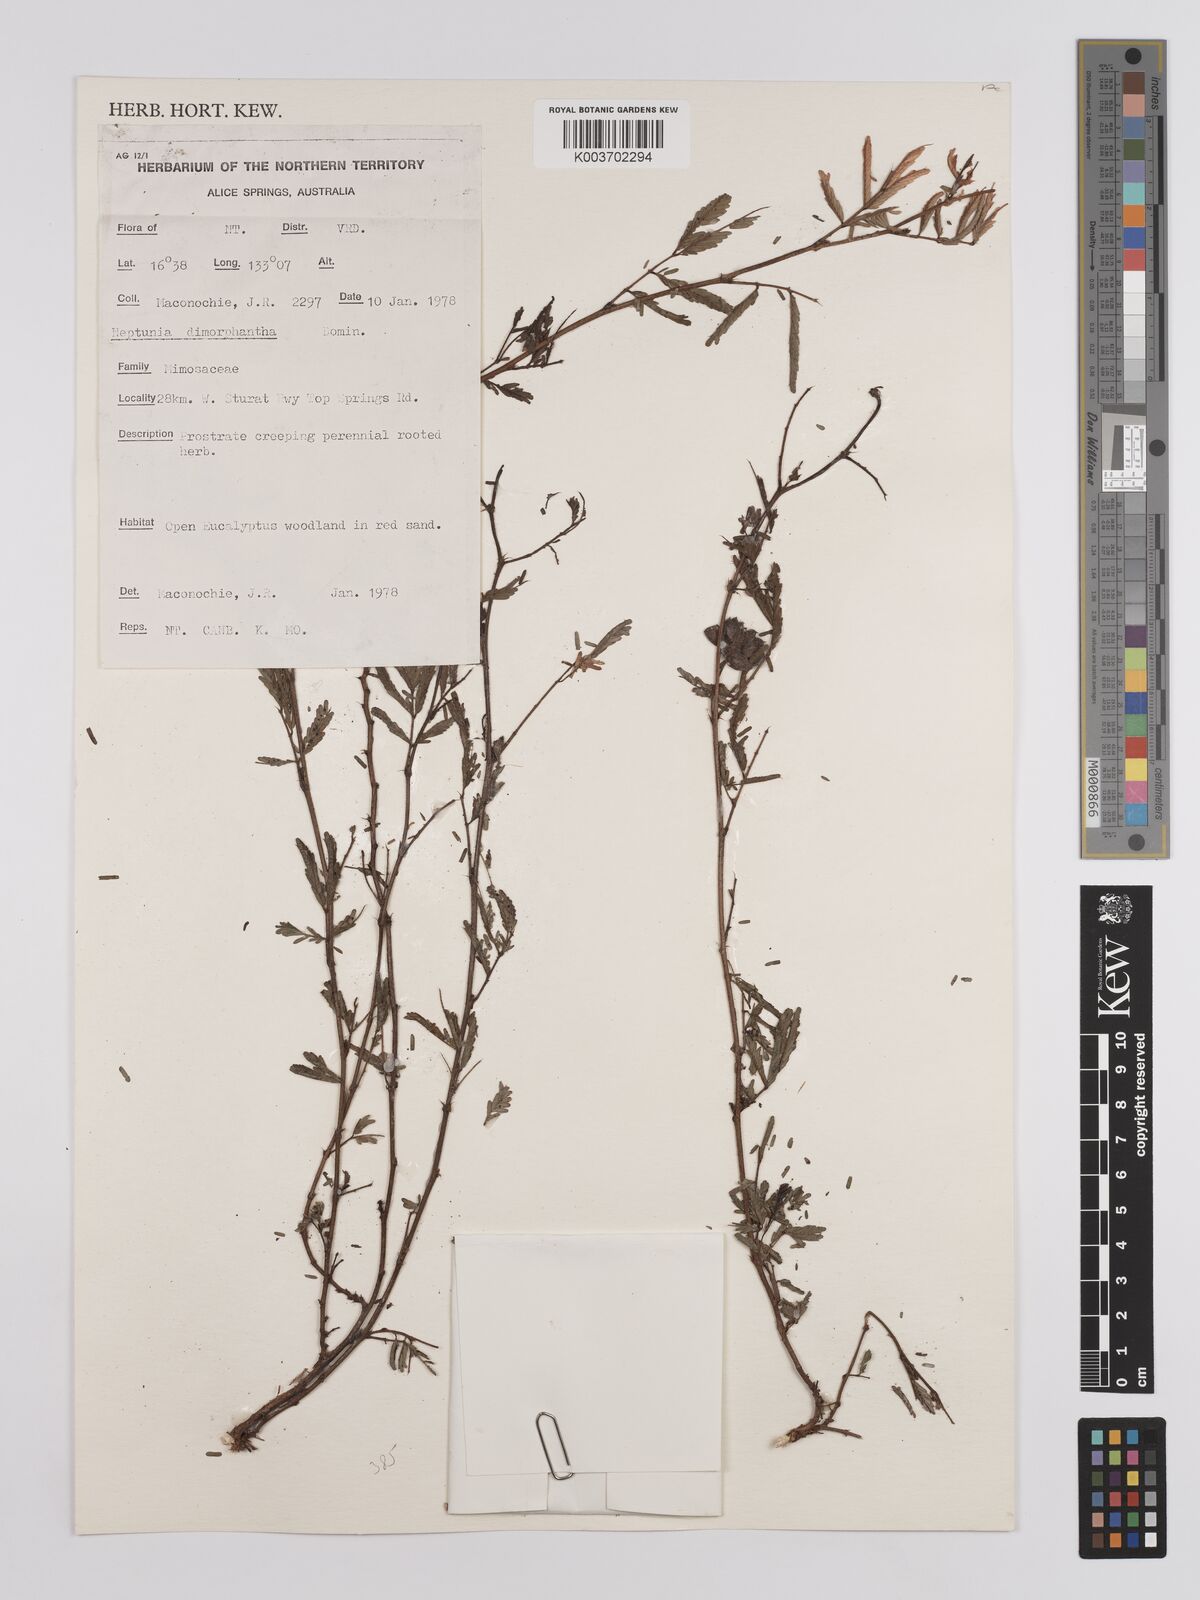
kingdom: Plantae
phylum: Tracheophyta
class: Magnoliopsida
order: Fabales
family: Fabaceae
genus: Neptunia
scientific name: Neptunia dimorphantha
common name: Sensitive-plant
